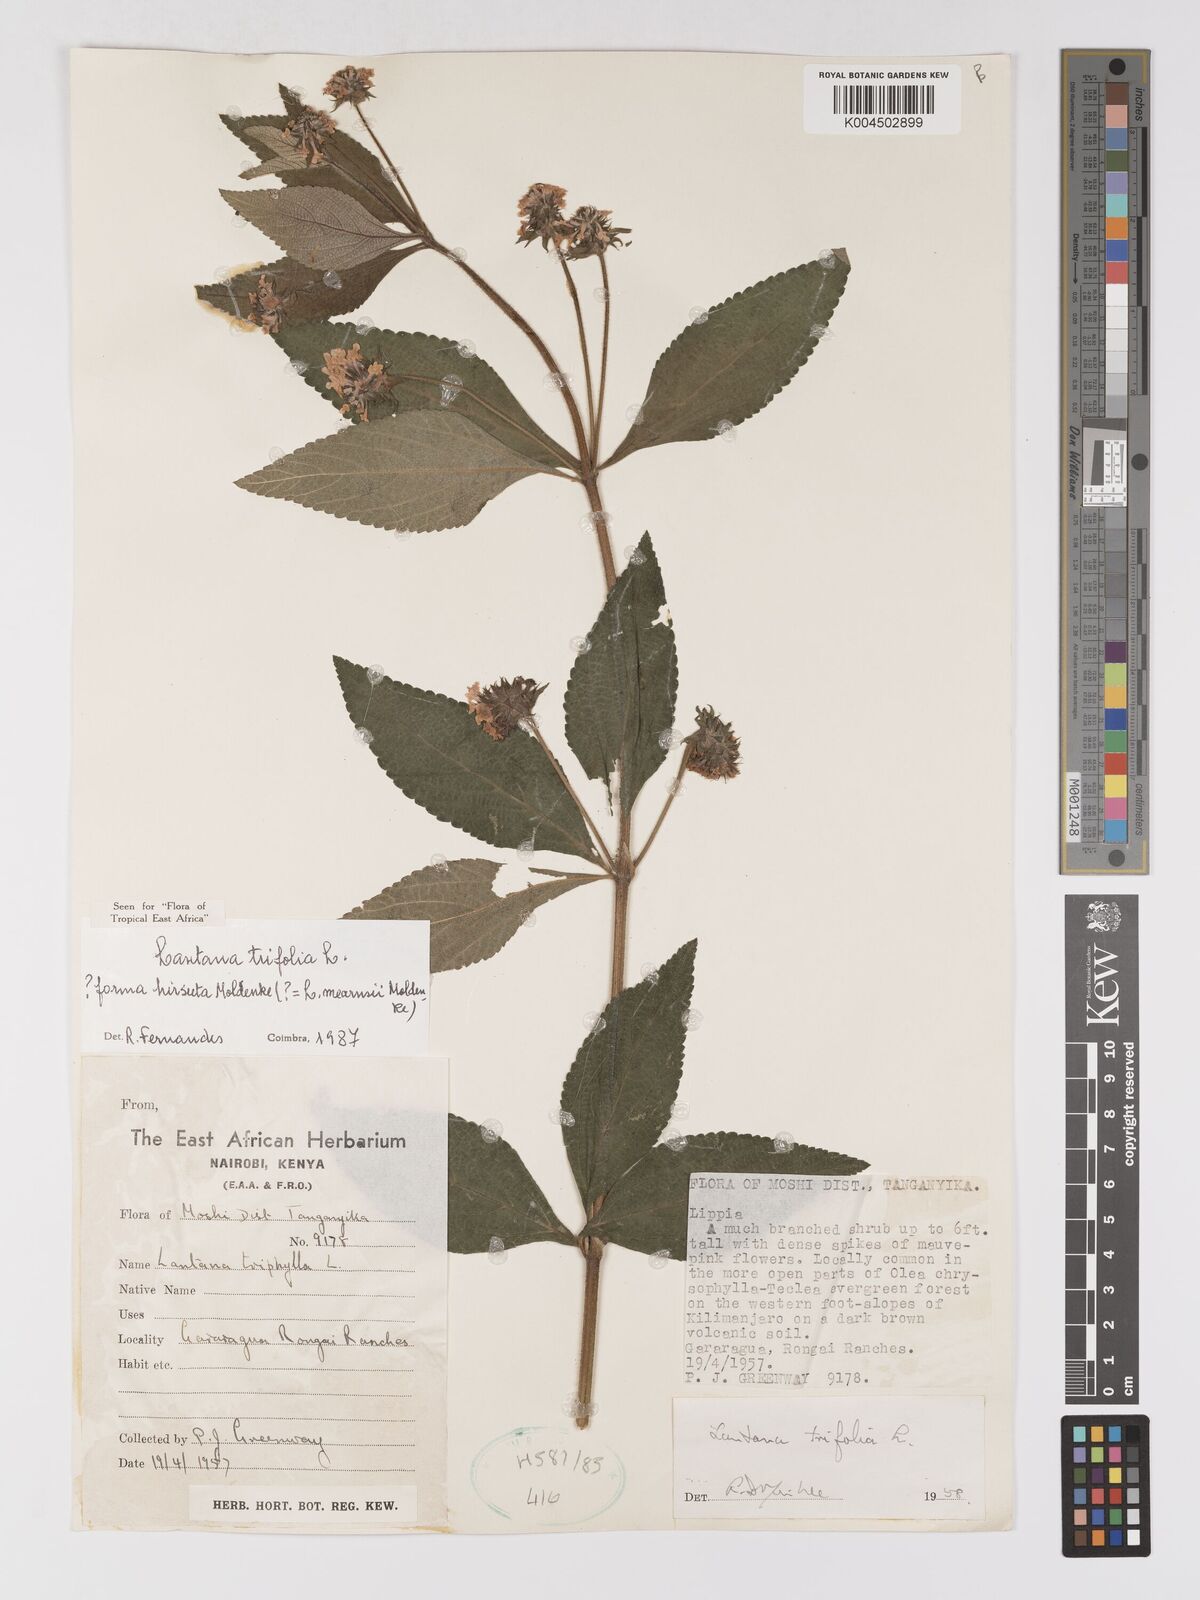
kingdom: Plantae
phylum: Tracheophyta
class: Magnoliopsida
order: Lamiales
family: Verbenaceae
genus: Lantana
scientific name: Lantana trifolia
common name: Sweet-sage
